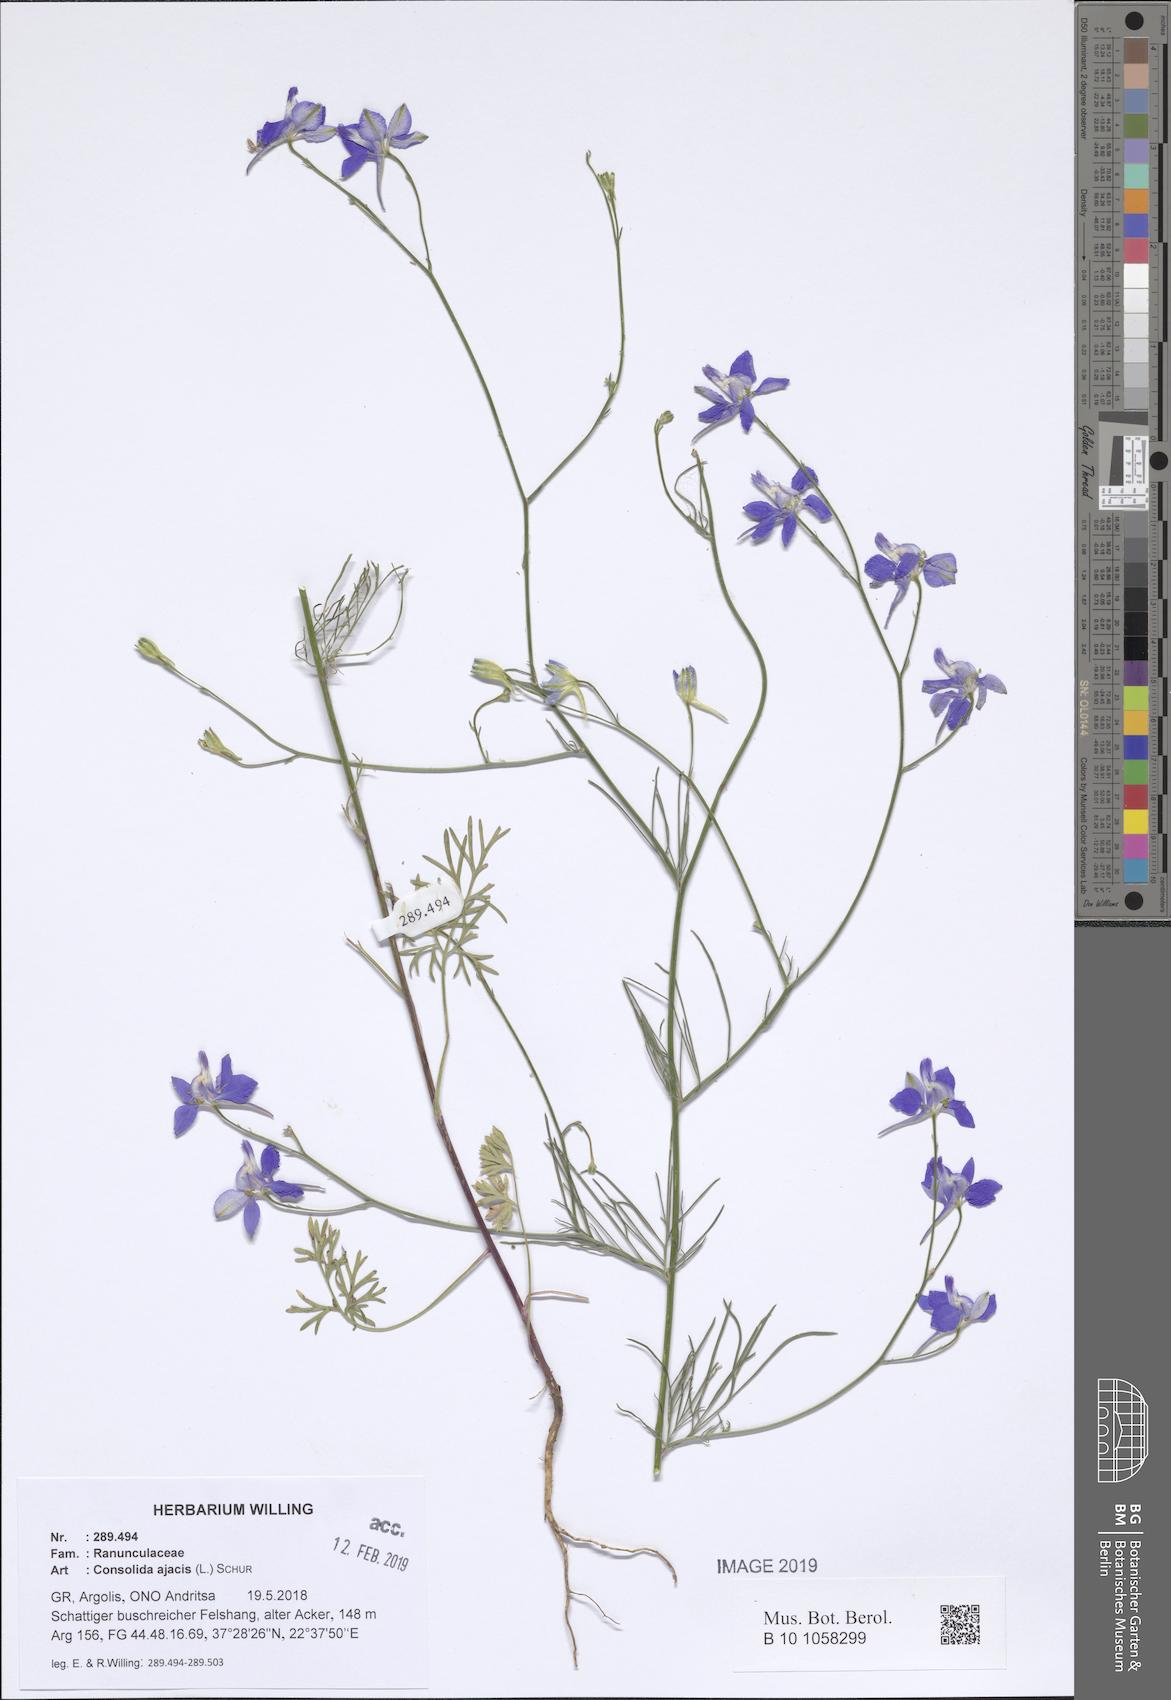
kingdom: Plantae
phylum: Tracheophyta
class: Magnoliopsida
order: Ranunculales
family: Ranunculaceae
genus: Delphinium
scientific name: Delphinium ajacis
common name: Doubtful knight's-spur
